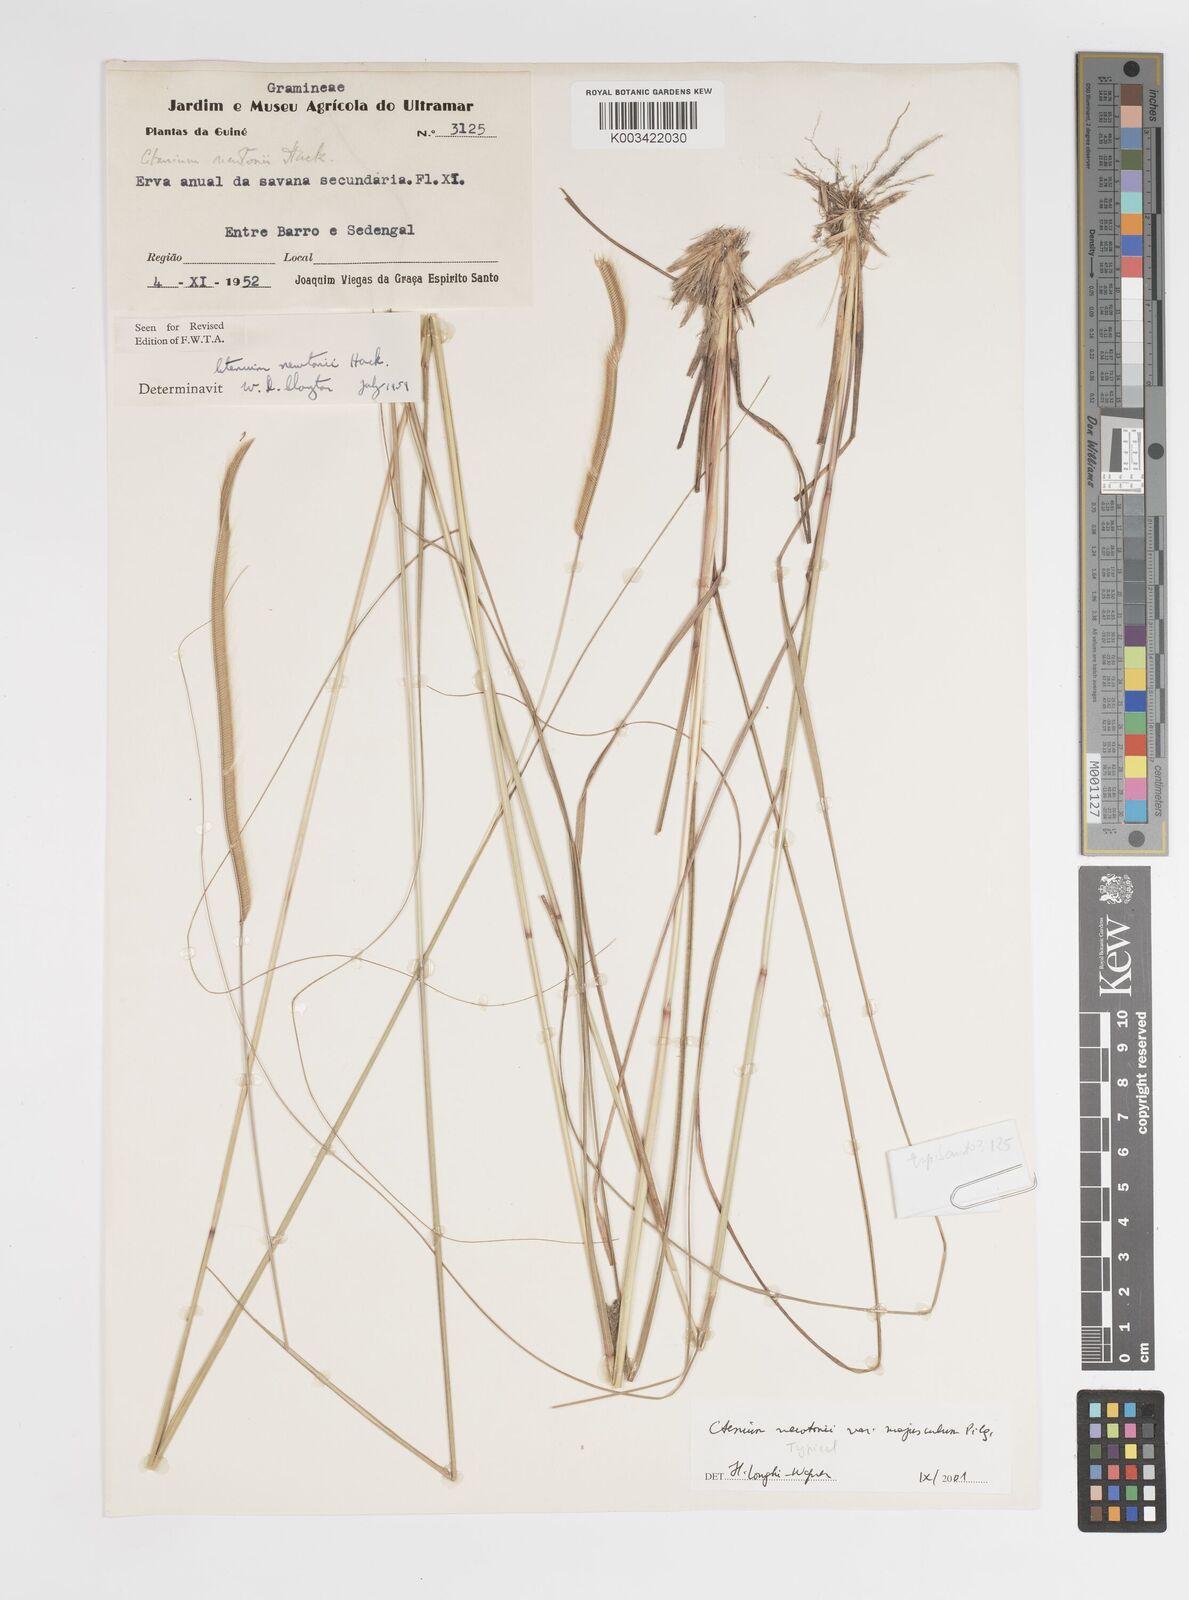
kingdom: Plantae
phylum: Tracheophyta
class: Liliopsida
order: Poales
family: Poaceae
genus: Ctenium
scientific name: Ctenium newtonii
